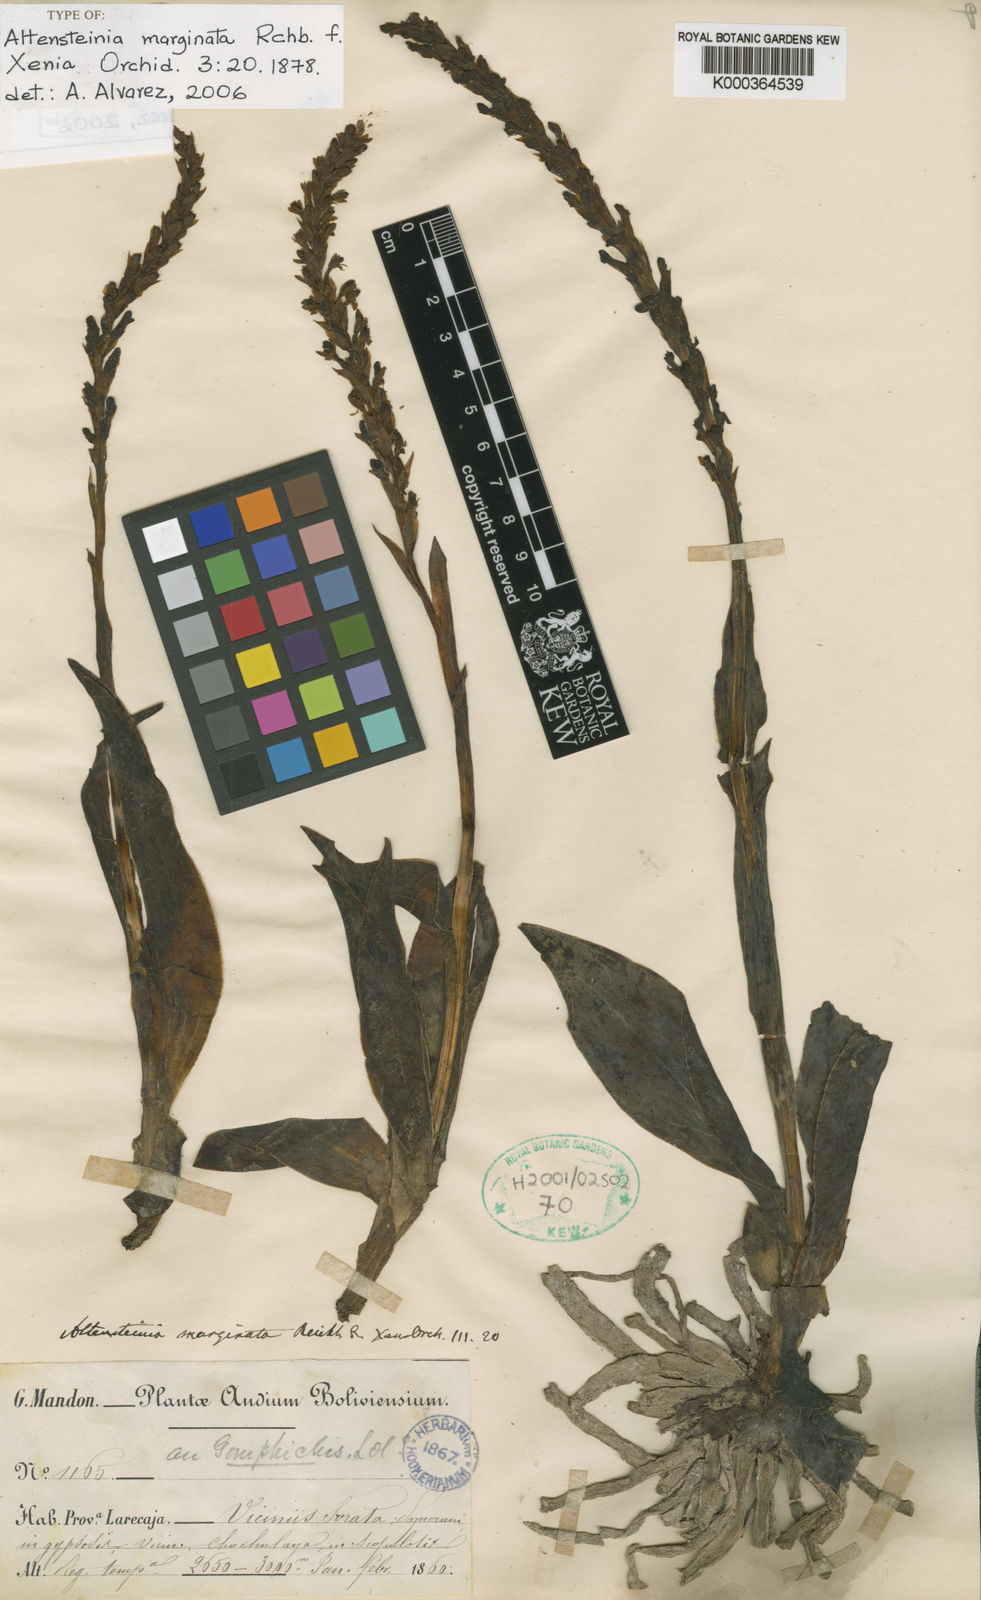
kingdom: Plantae
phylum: Tracheophyta
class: Liliopsida
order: Asparagales
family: Orchidaceae
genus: Altensteinia
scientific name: Altensteinia marginata
